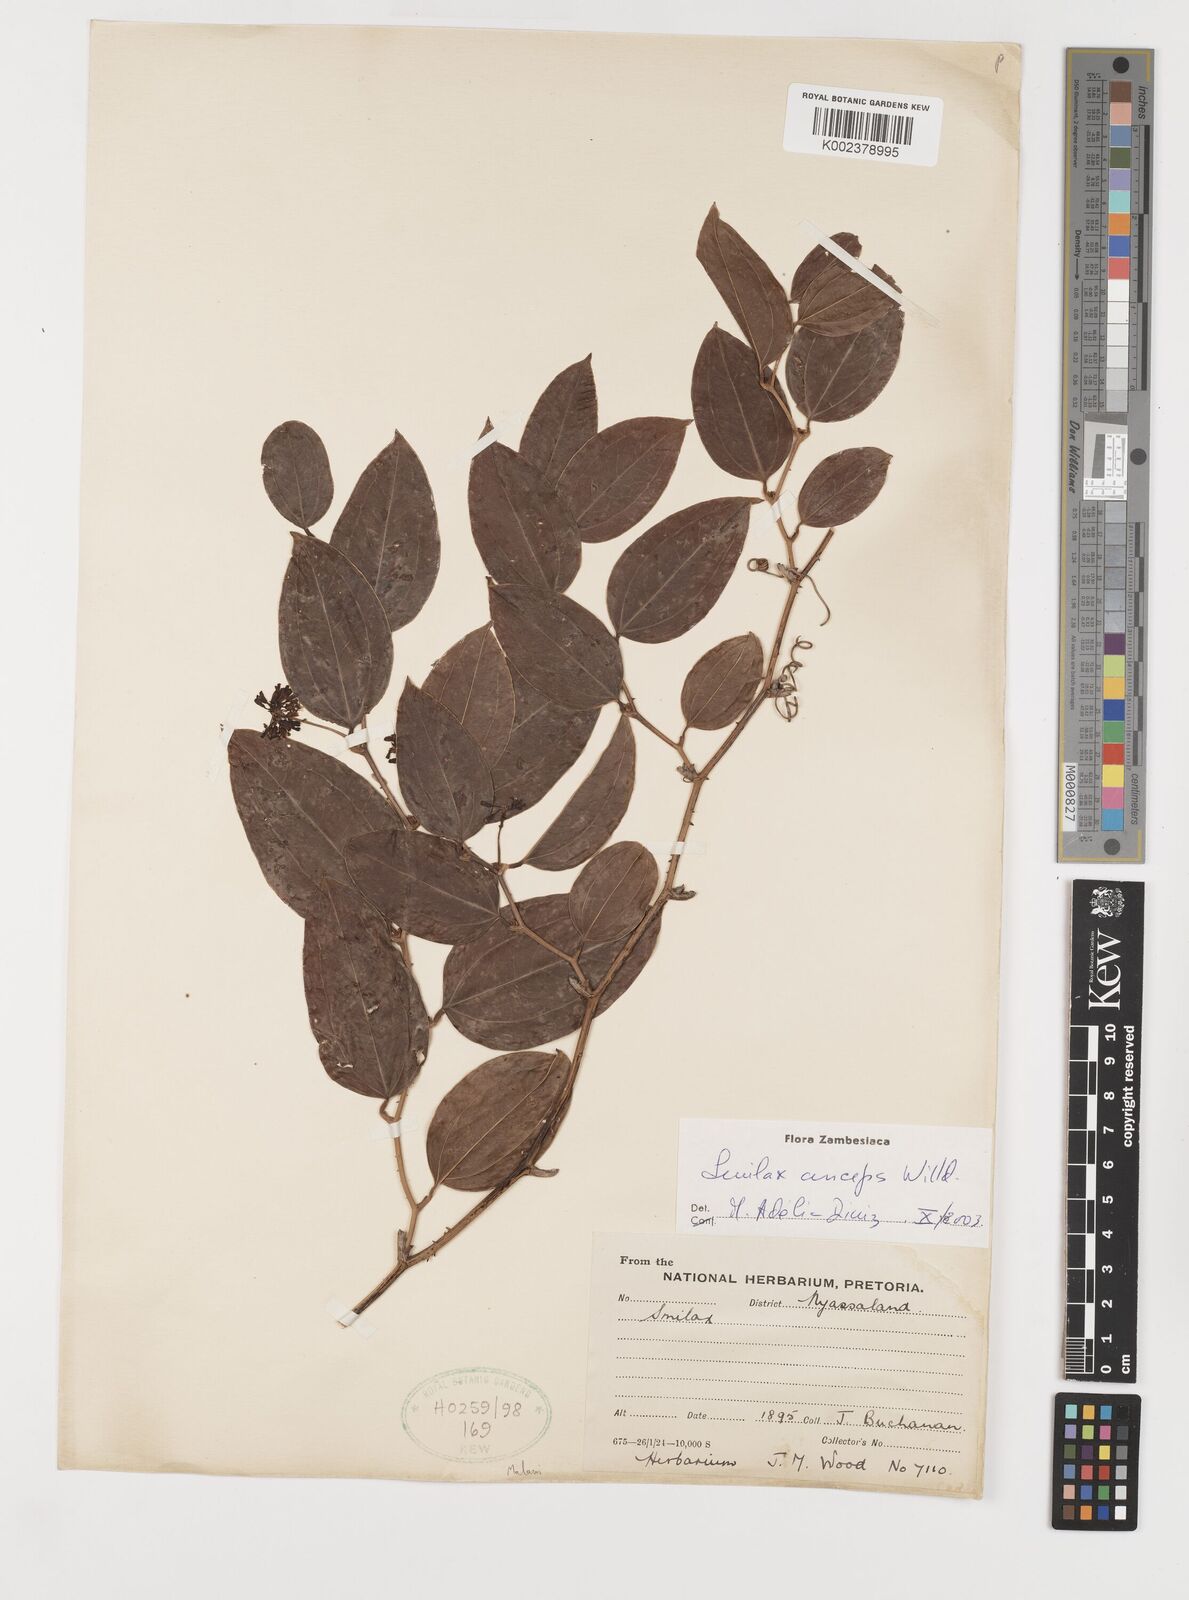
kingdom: Plantae
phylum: Tracheophyta
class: Liliopsida
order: Liliales
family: Smilacaceae
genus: Smilax
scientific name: Smilax anceps
